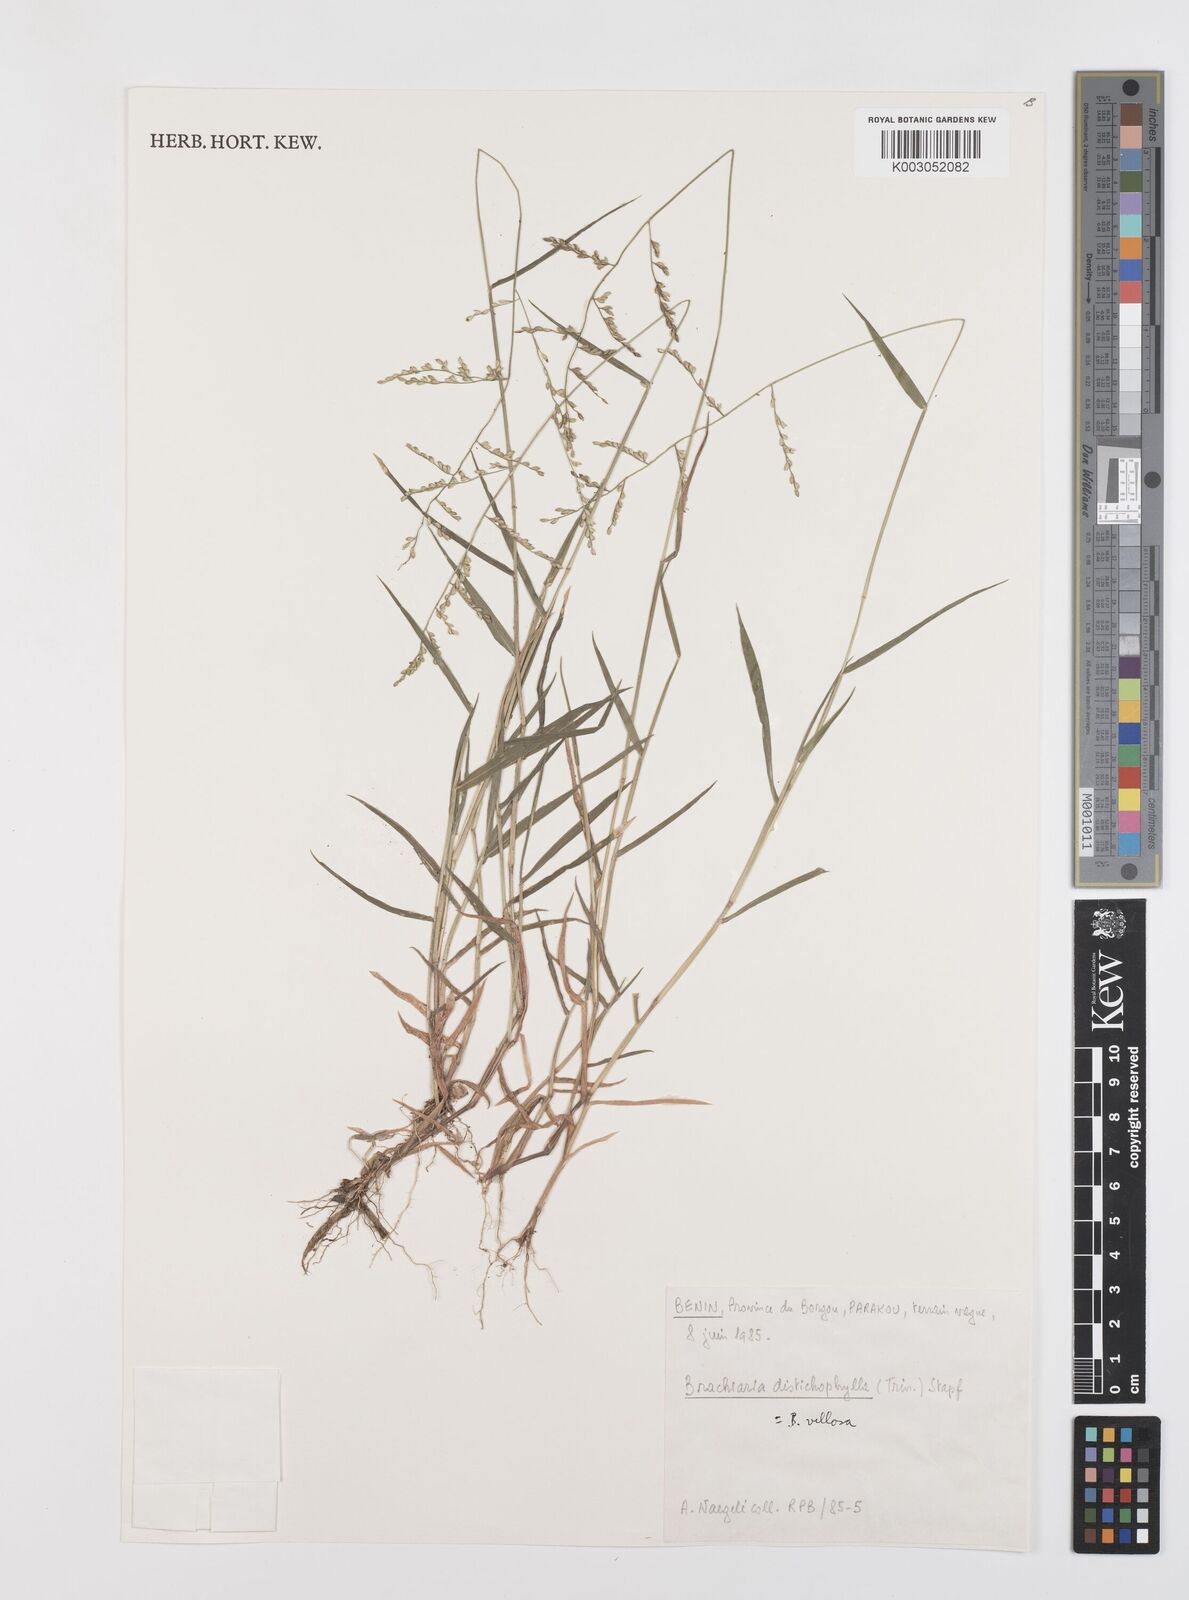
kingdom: Plantae
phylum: Tracheophyta
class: Liliopsida
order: Poales
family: Poaceae
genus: Urochloa
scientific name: Urochloa villosa
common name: Hairy signalgrass
